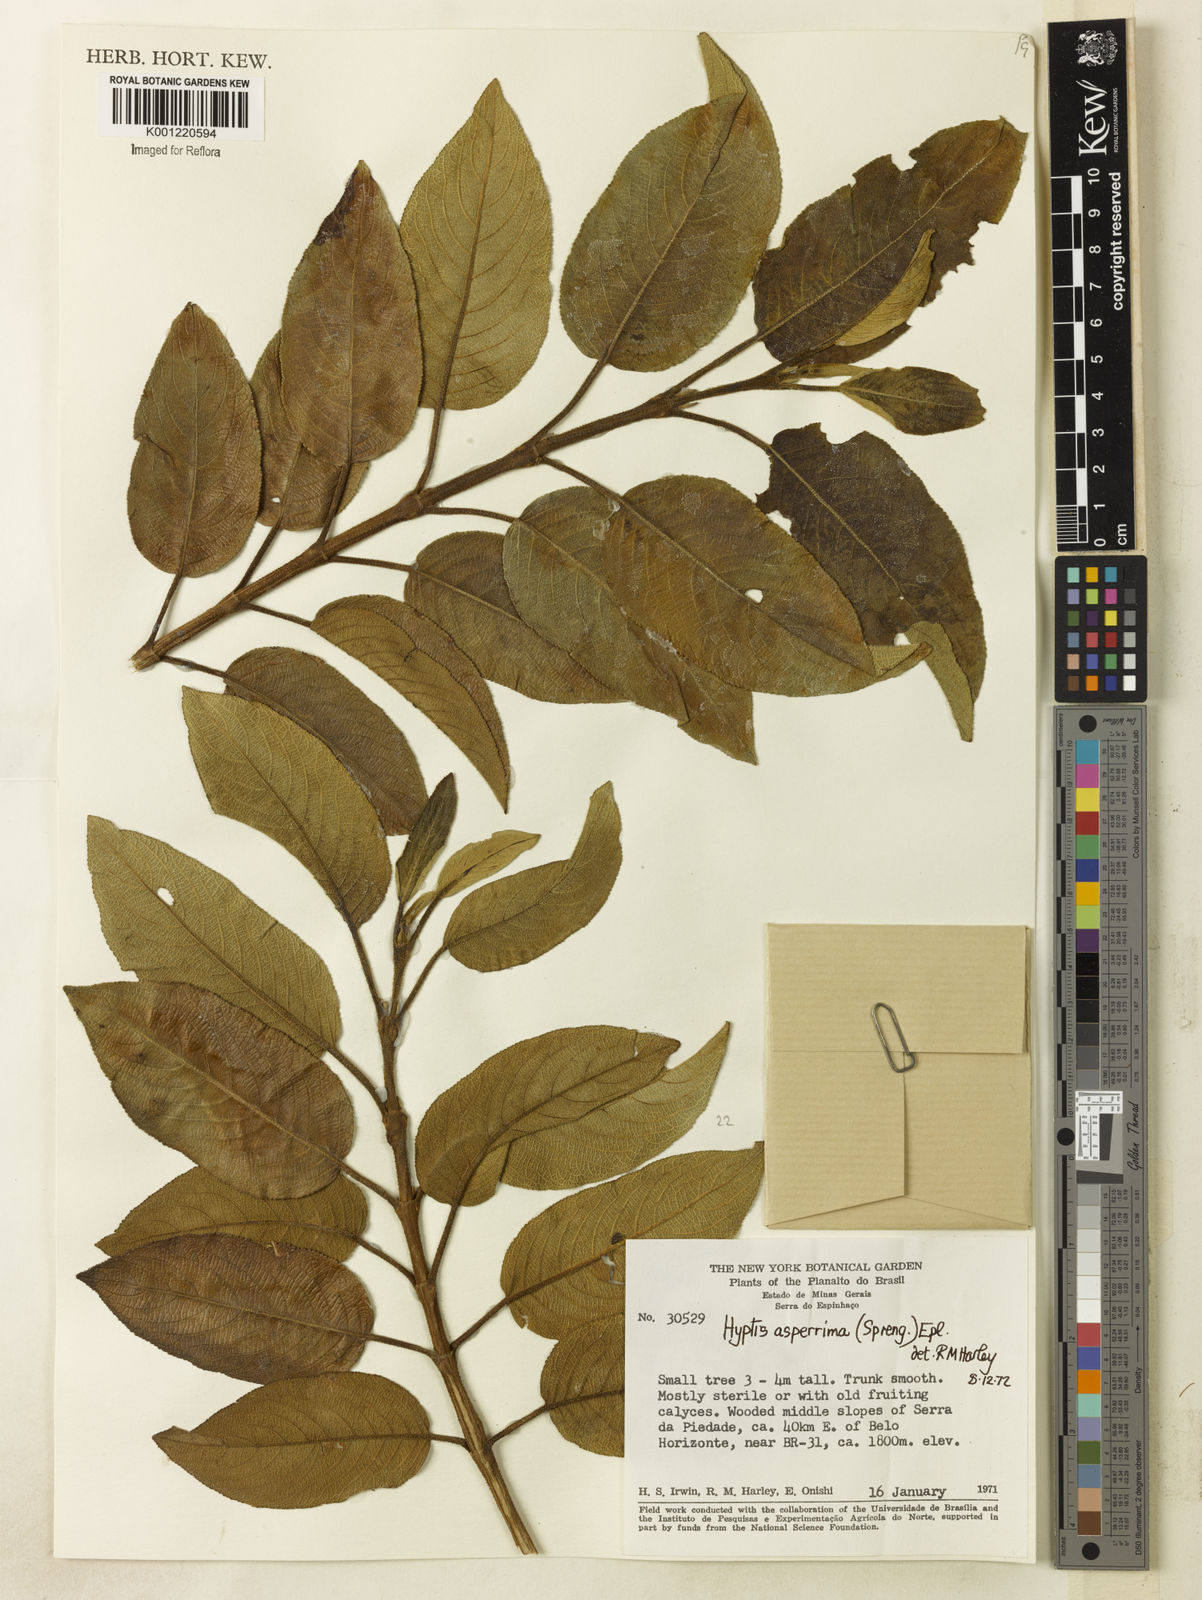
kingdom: Plantae
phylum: Tracheophyta
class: Magnoliopsida
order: Lamiales
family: Lamiaceae
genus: Hyptidendron
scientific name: Hyptidendron asperrimum
